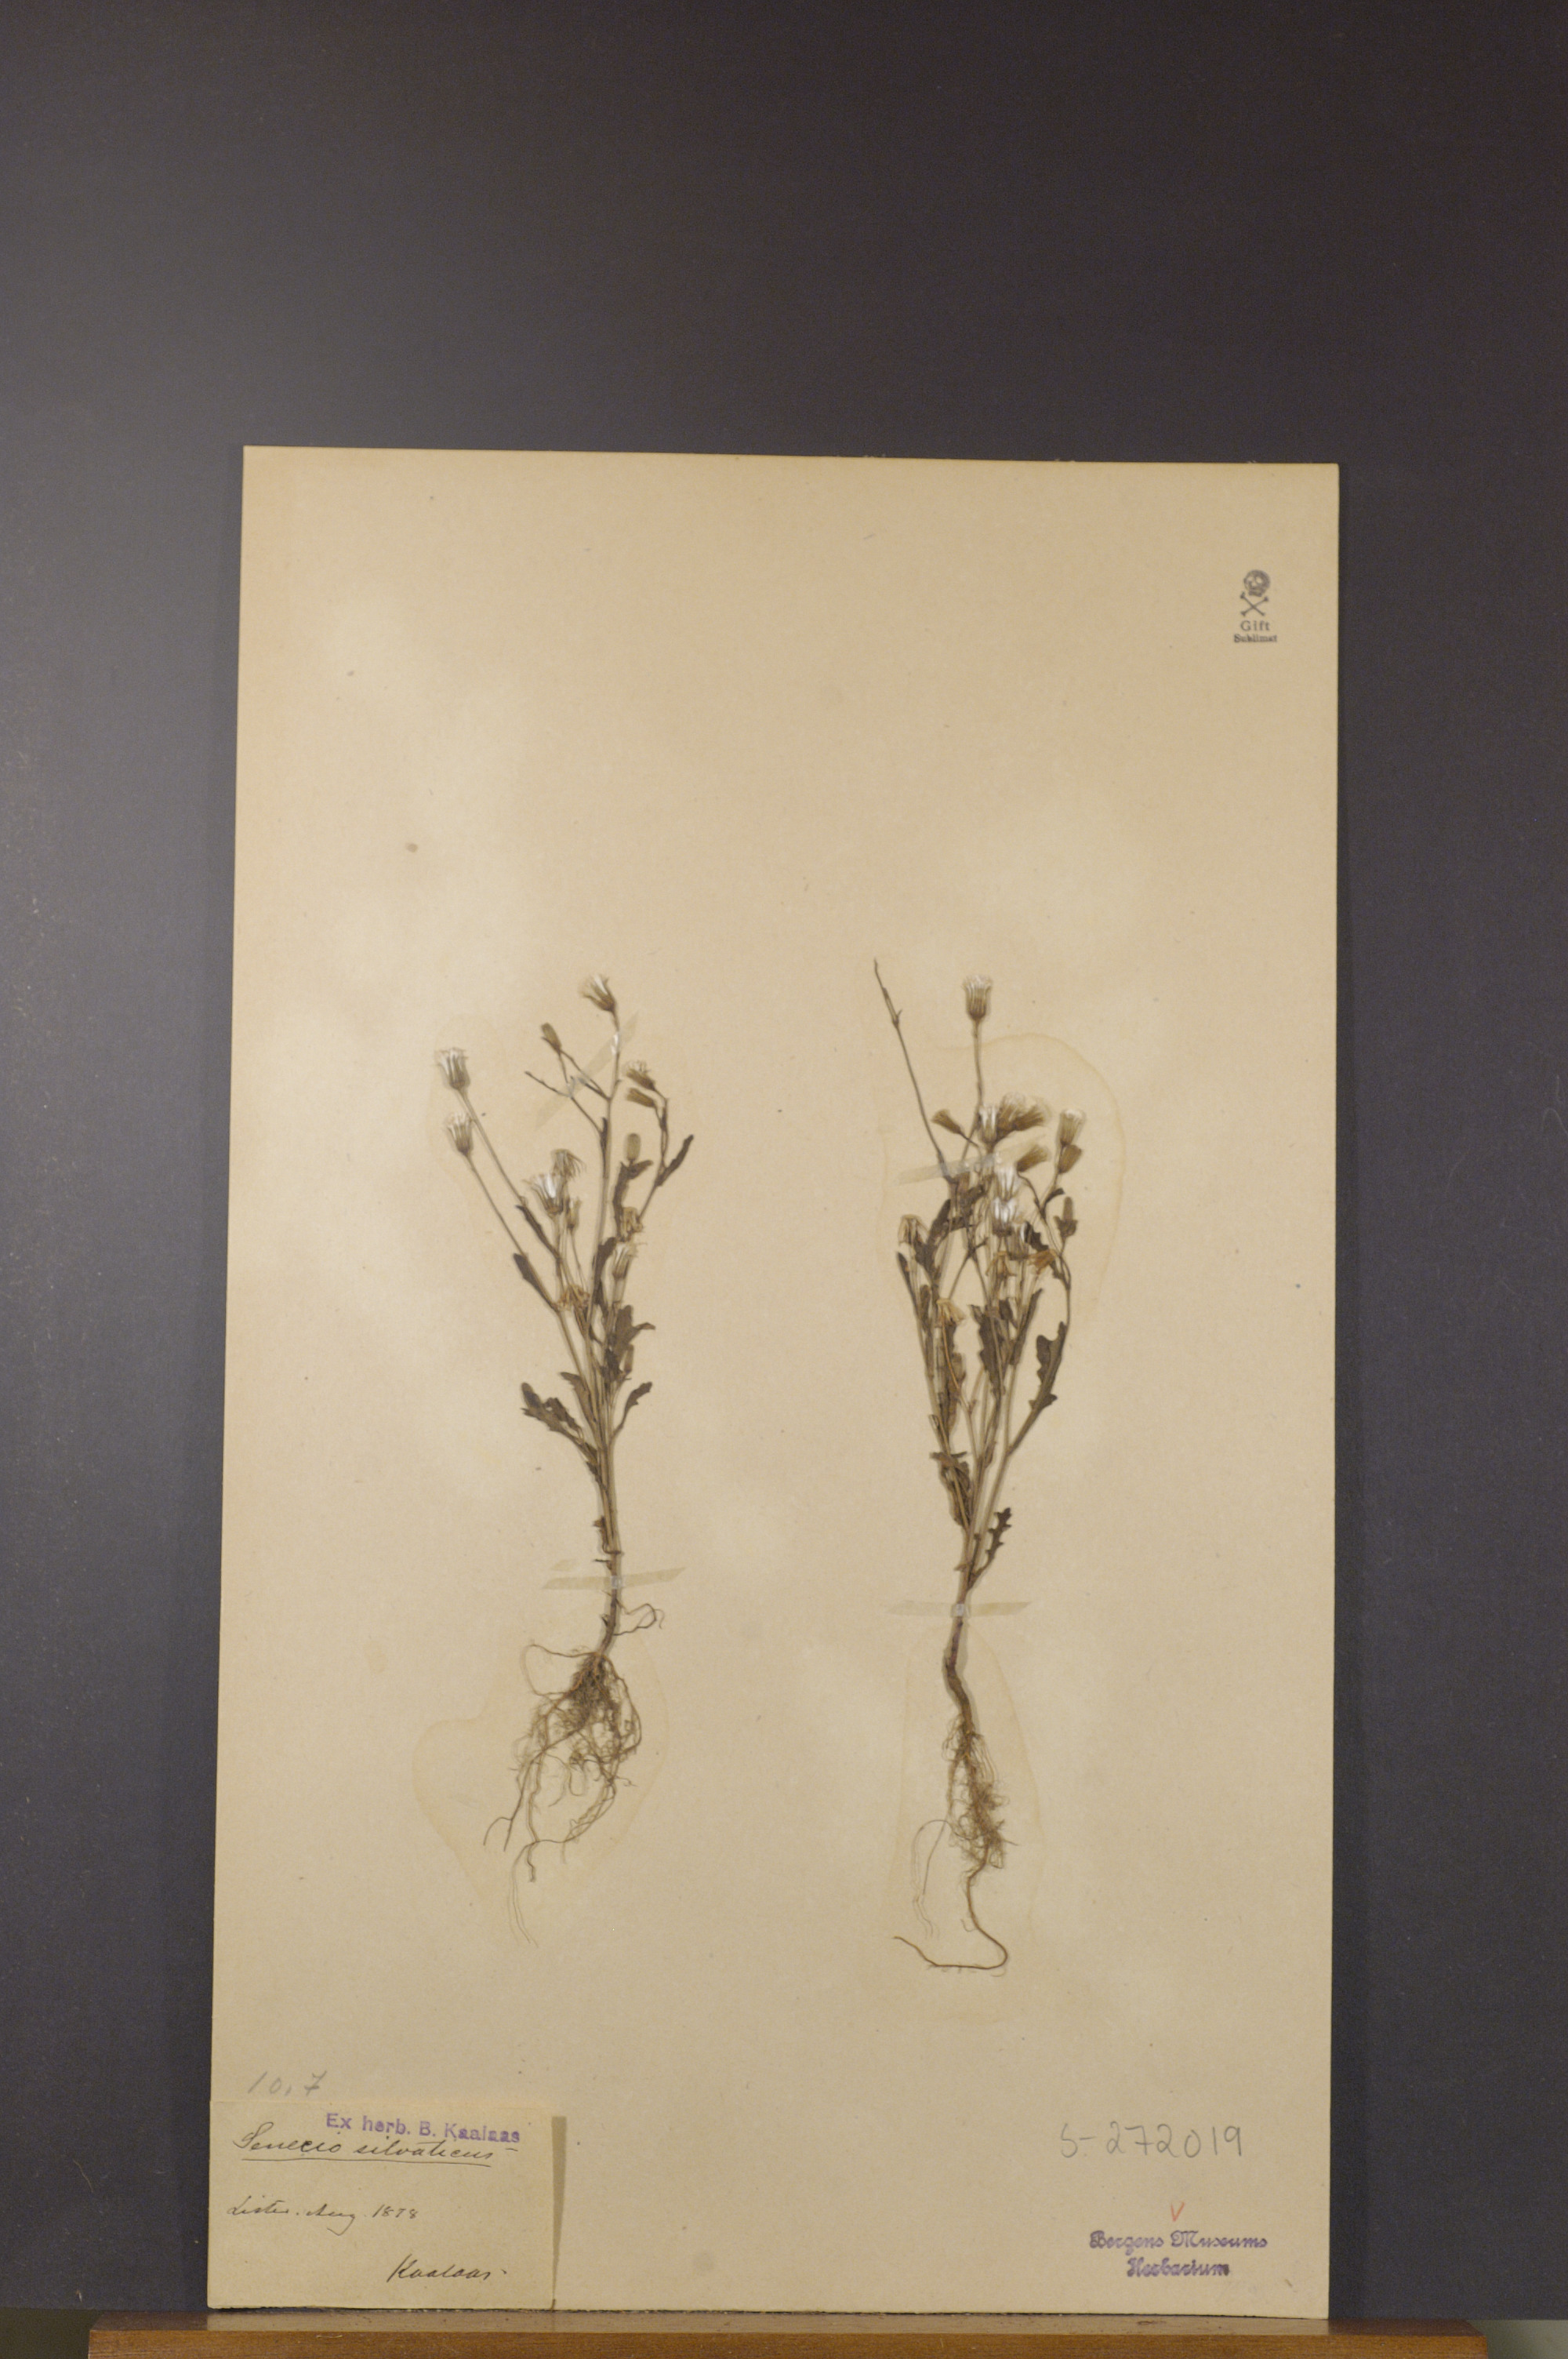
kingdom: Plantae
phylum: Tracheophyta
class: Magnoliopsida
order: Asterales
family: Asteraceae
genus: Senecio
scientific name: Senecio sylvaticus
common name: Woodland ragwort
